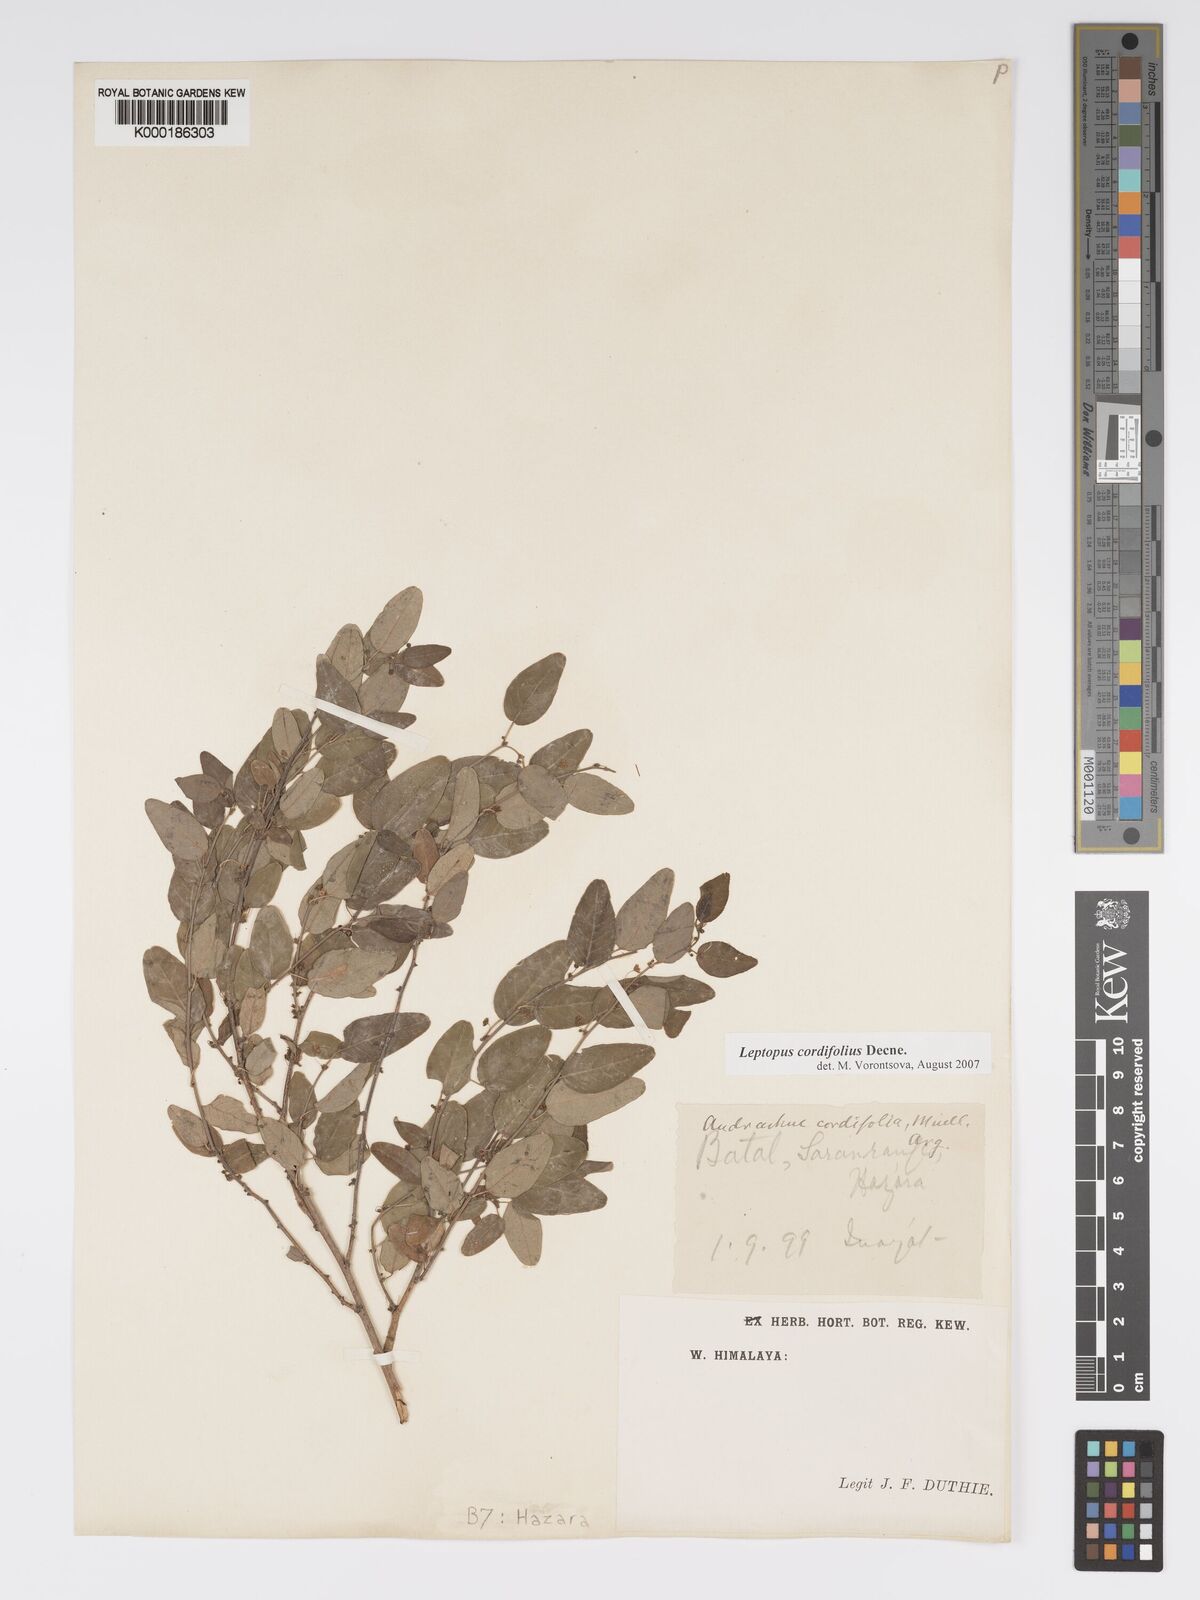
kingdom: Plantae
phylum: Tracheophyta
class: Magnoliopsida
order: Malpighiales
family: Phyllanthaceae
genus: Leptopus
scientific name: Leptopus cordifolius
